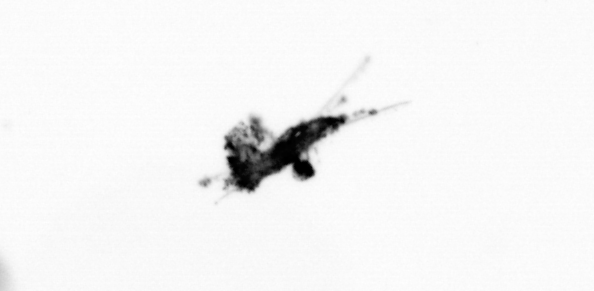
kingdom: Animalia
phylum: Arthropoda
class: Copepoda
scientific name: Copepoda
